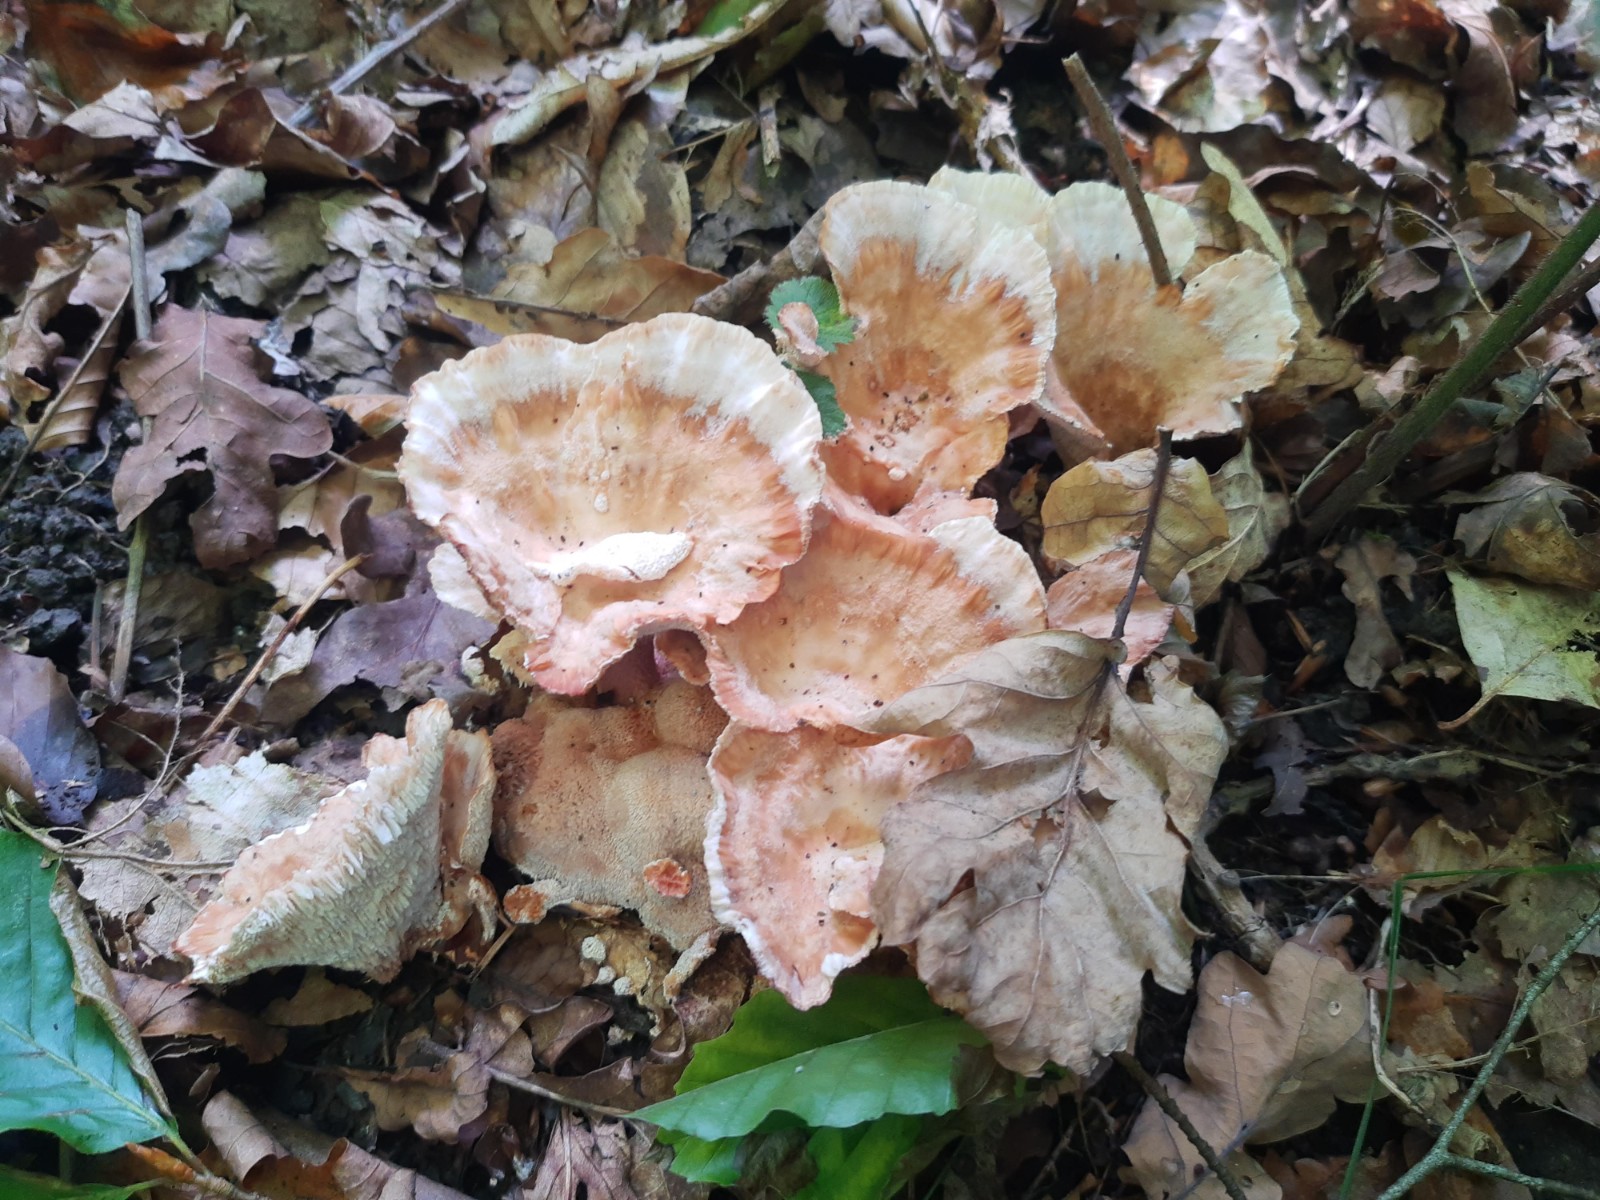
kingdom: Fungi
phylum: Basidiomycota
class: Agaricomycetes
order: Polyporales
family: Podoscyphaceae
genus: Abortiporus
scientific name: Abortiporus biennis
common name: rødmende pjalteporesvamp
